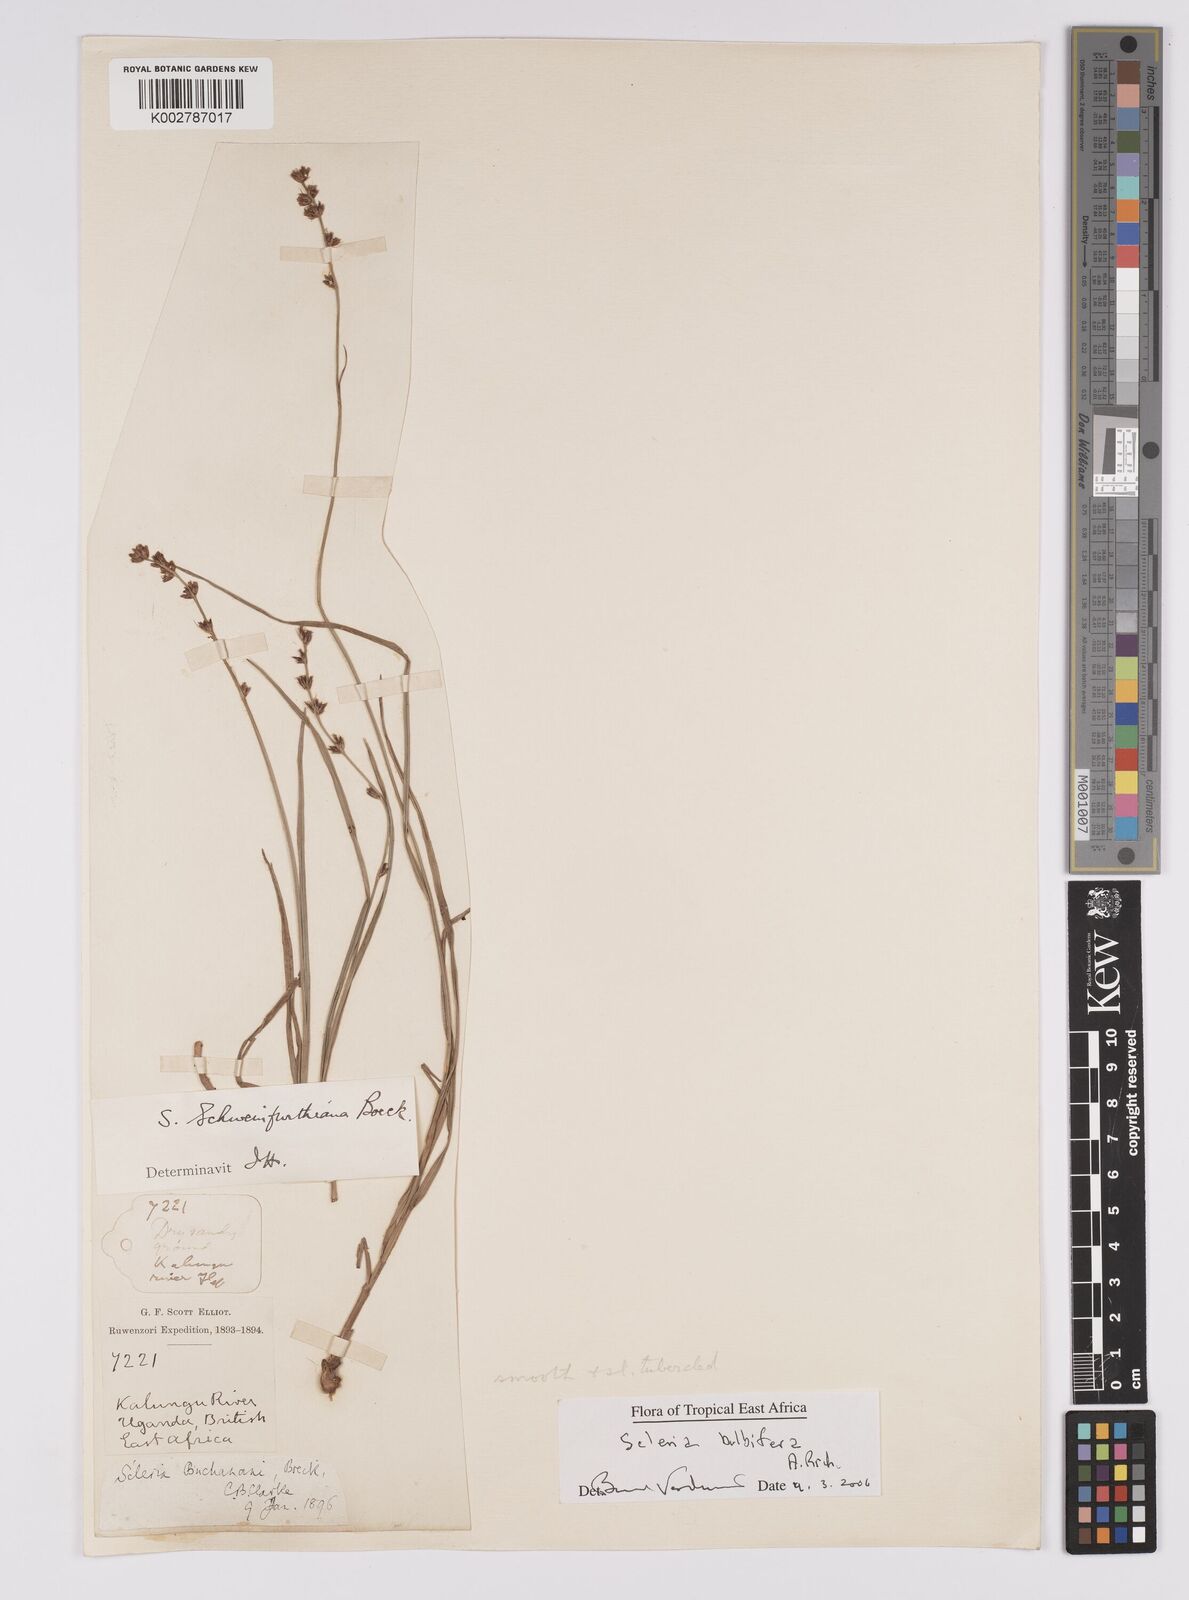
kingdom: Plantae
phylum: Tracheophyta
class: Liliopsida
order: Poales
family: Cyperaceae
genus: Scleria
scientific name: Scleria bulbifera
